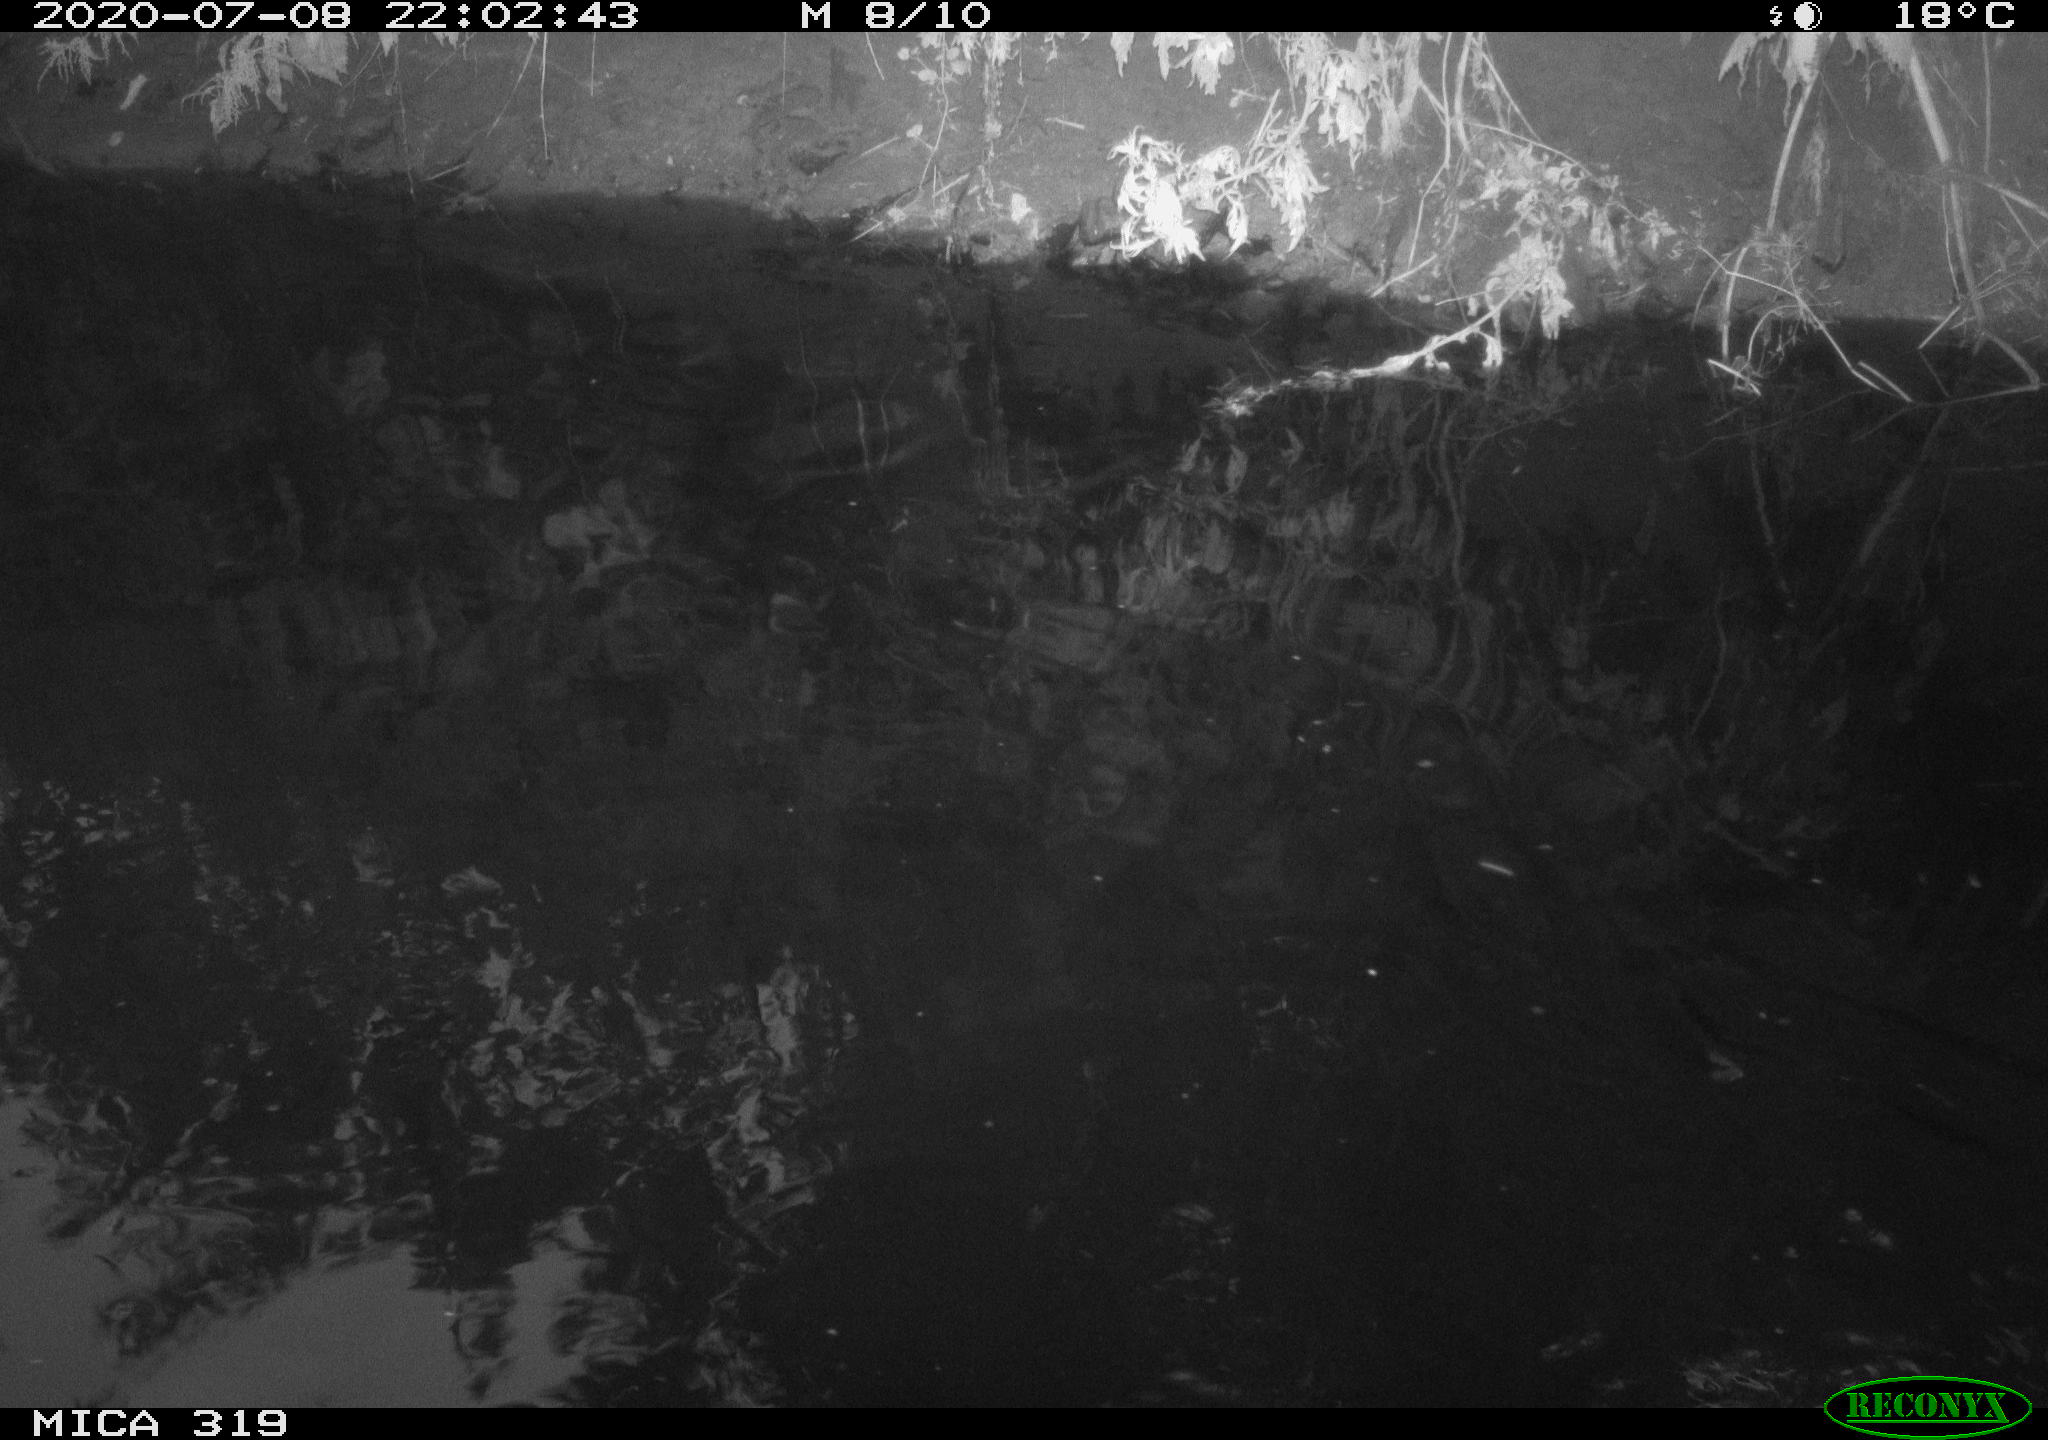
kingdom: Animalia
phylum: Chordata
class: Aves
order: Anseriformes
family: Anatidae
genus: Anas
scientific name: Anas platyrhynchos
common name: Mallard
